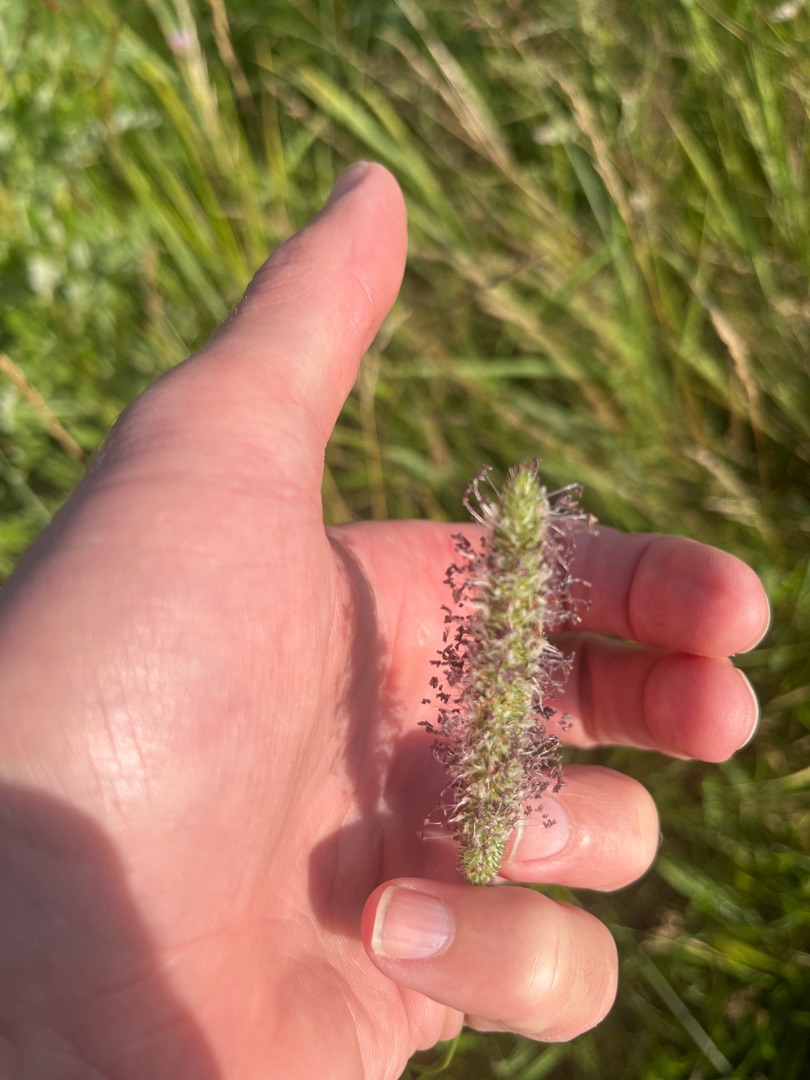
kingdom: Plantae
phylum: Tracheophyta
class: Liliopsida
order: Poales
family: Poaceae
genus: Phleum
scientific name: Phleum pratense
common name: Eng-rottehale
